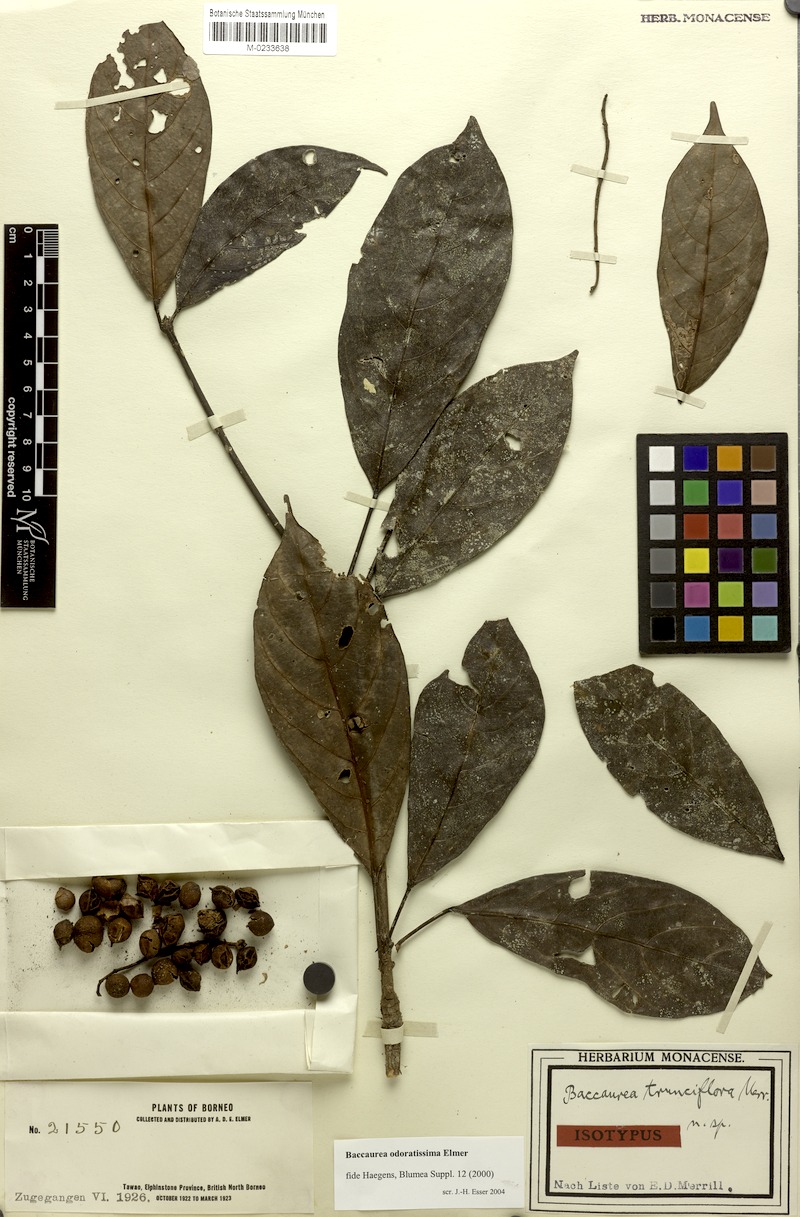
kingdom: Plantae
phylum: Tracheophyta
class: Magnoliopsida
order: Malpighiales
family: Phyllanthaceae
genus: Baccaurea
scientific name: Baccaurea odoratissima
